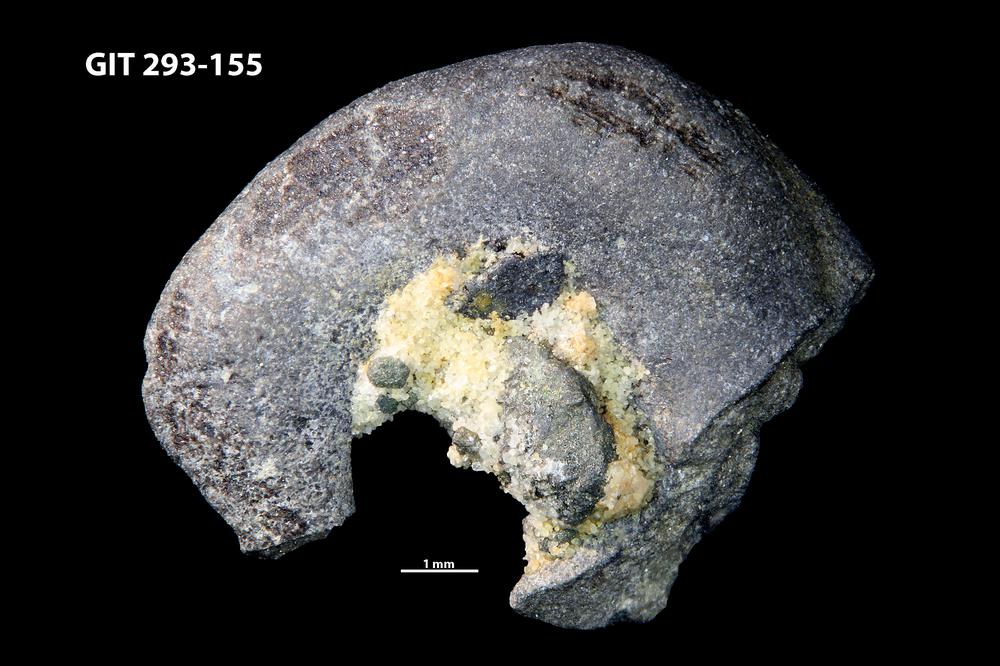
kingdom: Animalia
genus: Estoniadiscus
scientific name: Estoniadiscus
